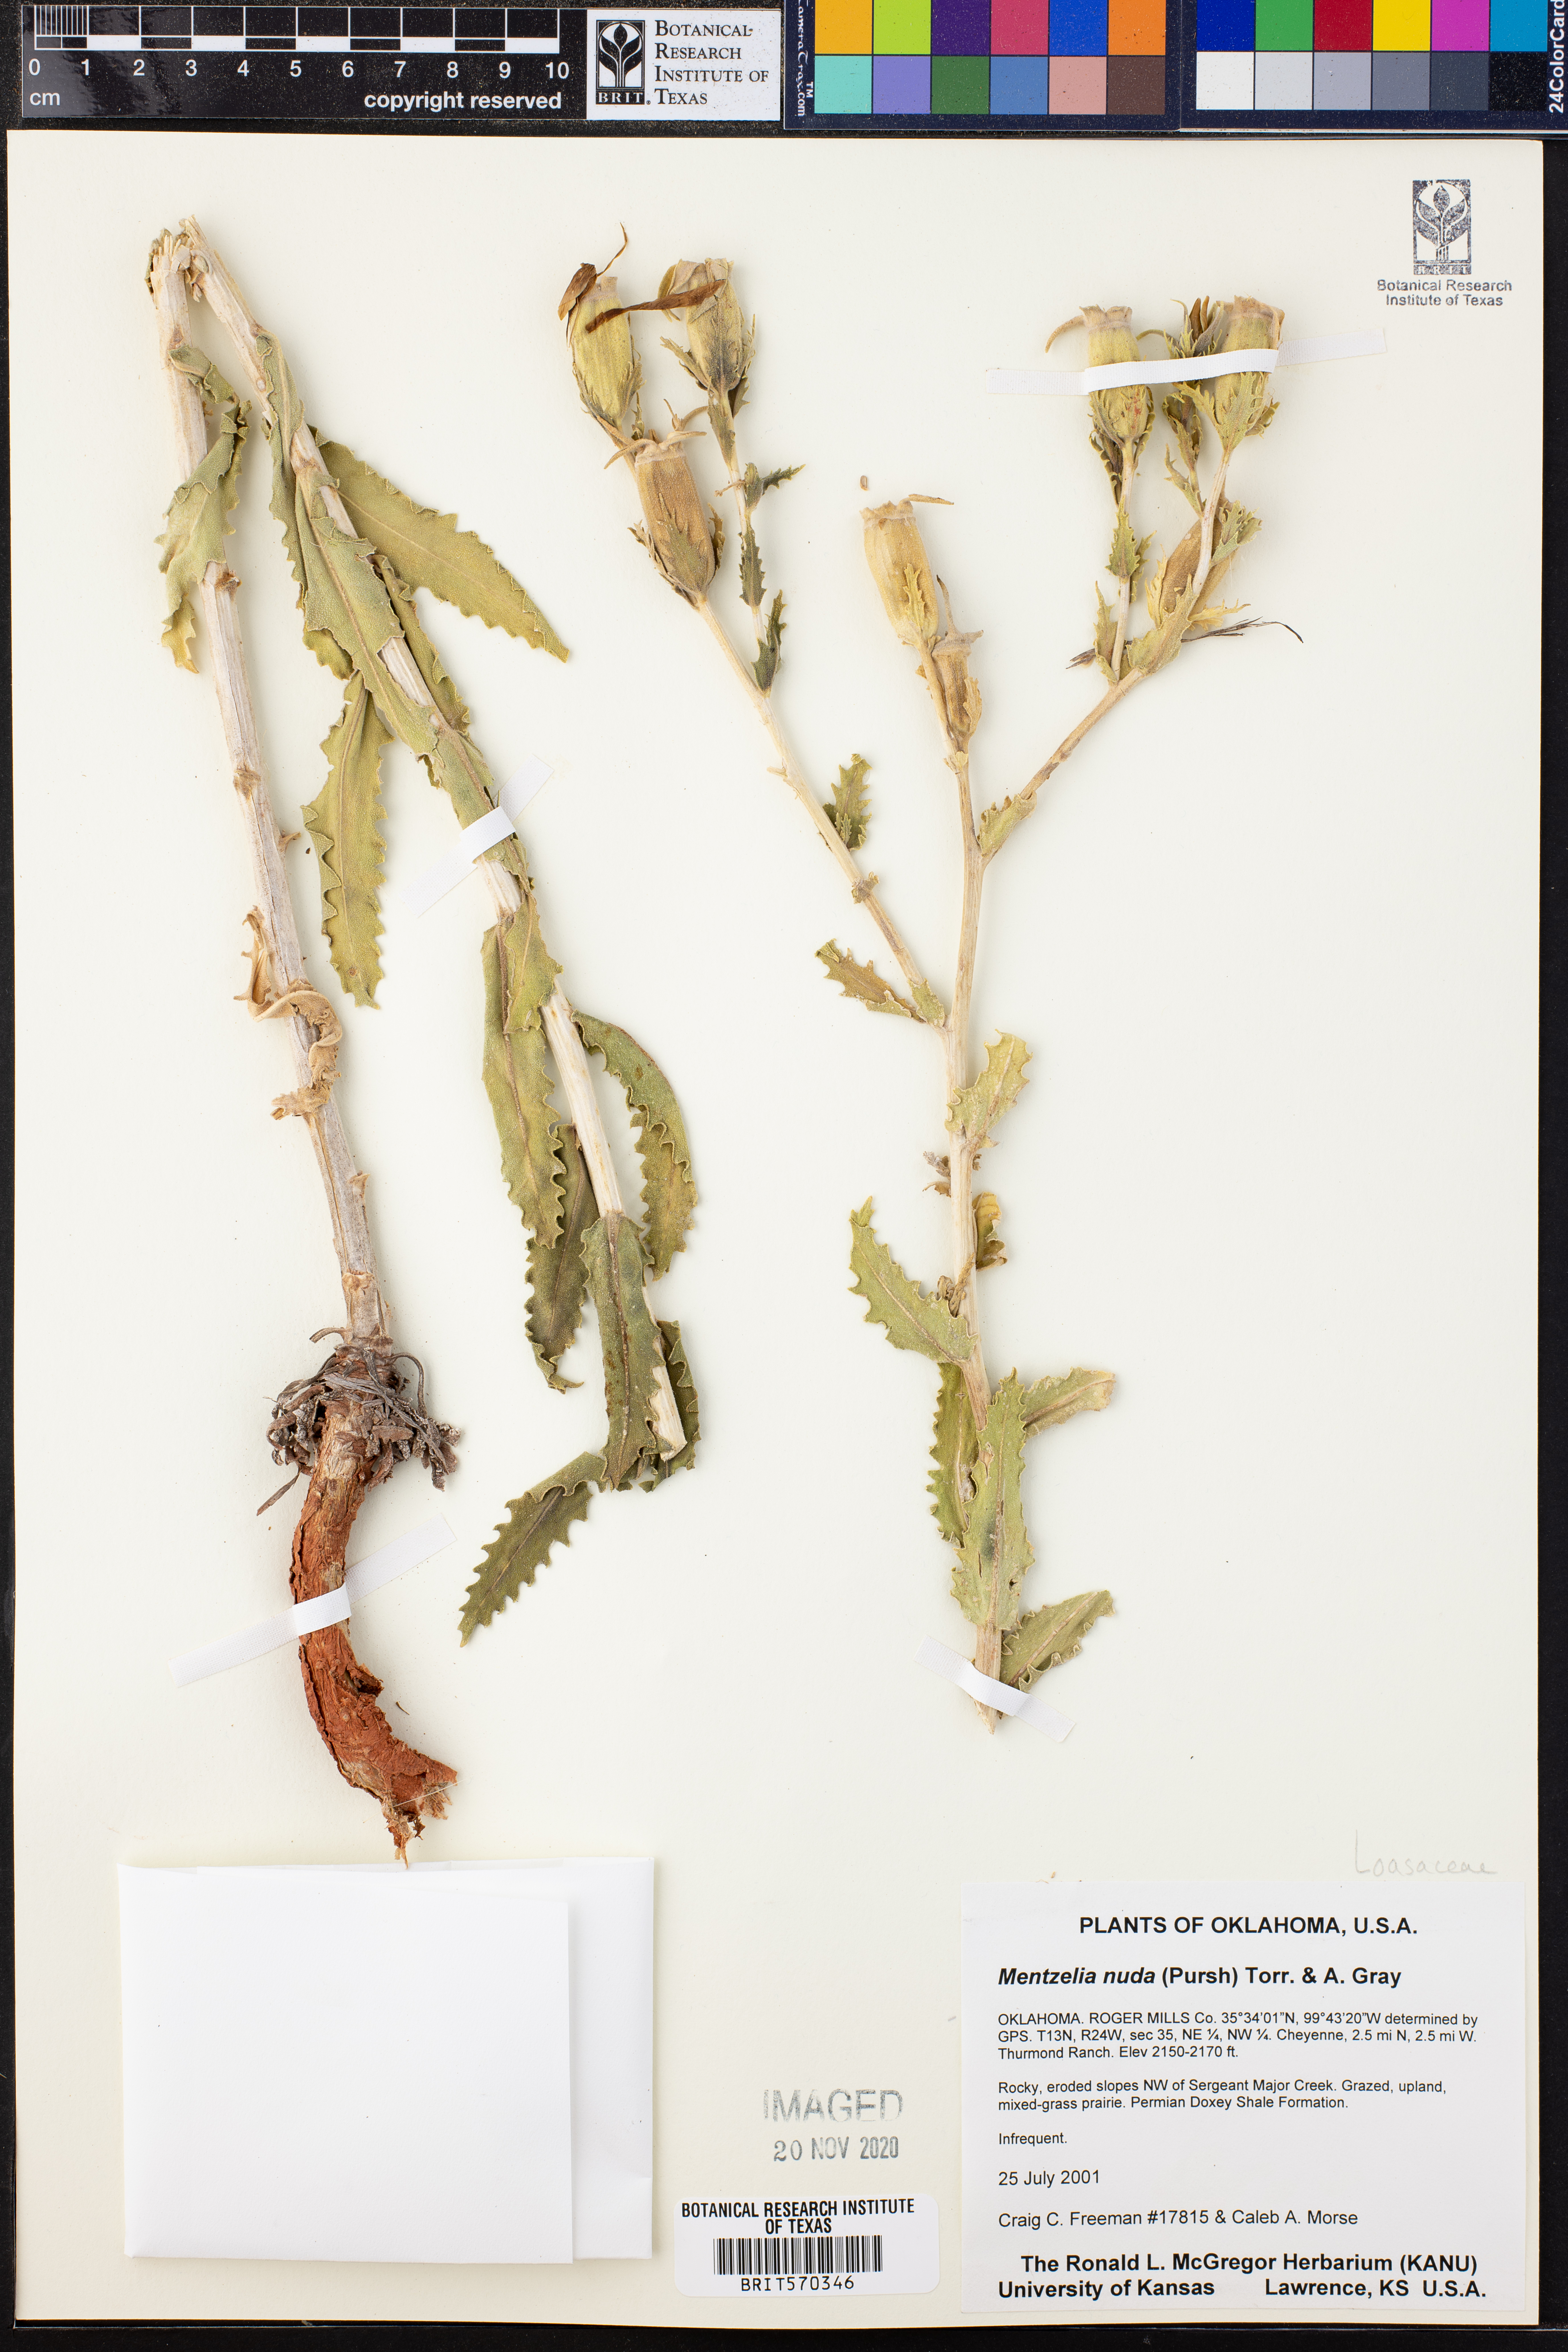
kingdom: Plantae
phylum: Tracheophyta
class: Magnoliopsida
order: Cornales
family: Loasaceae
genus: Mentzelia
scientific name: Mentzelia nuda
